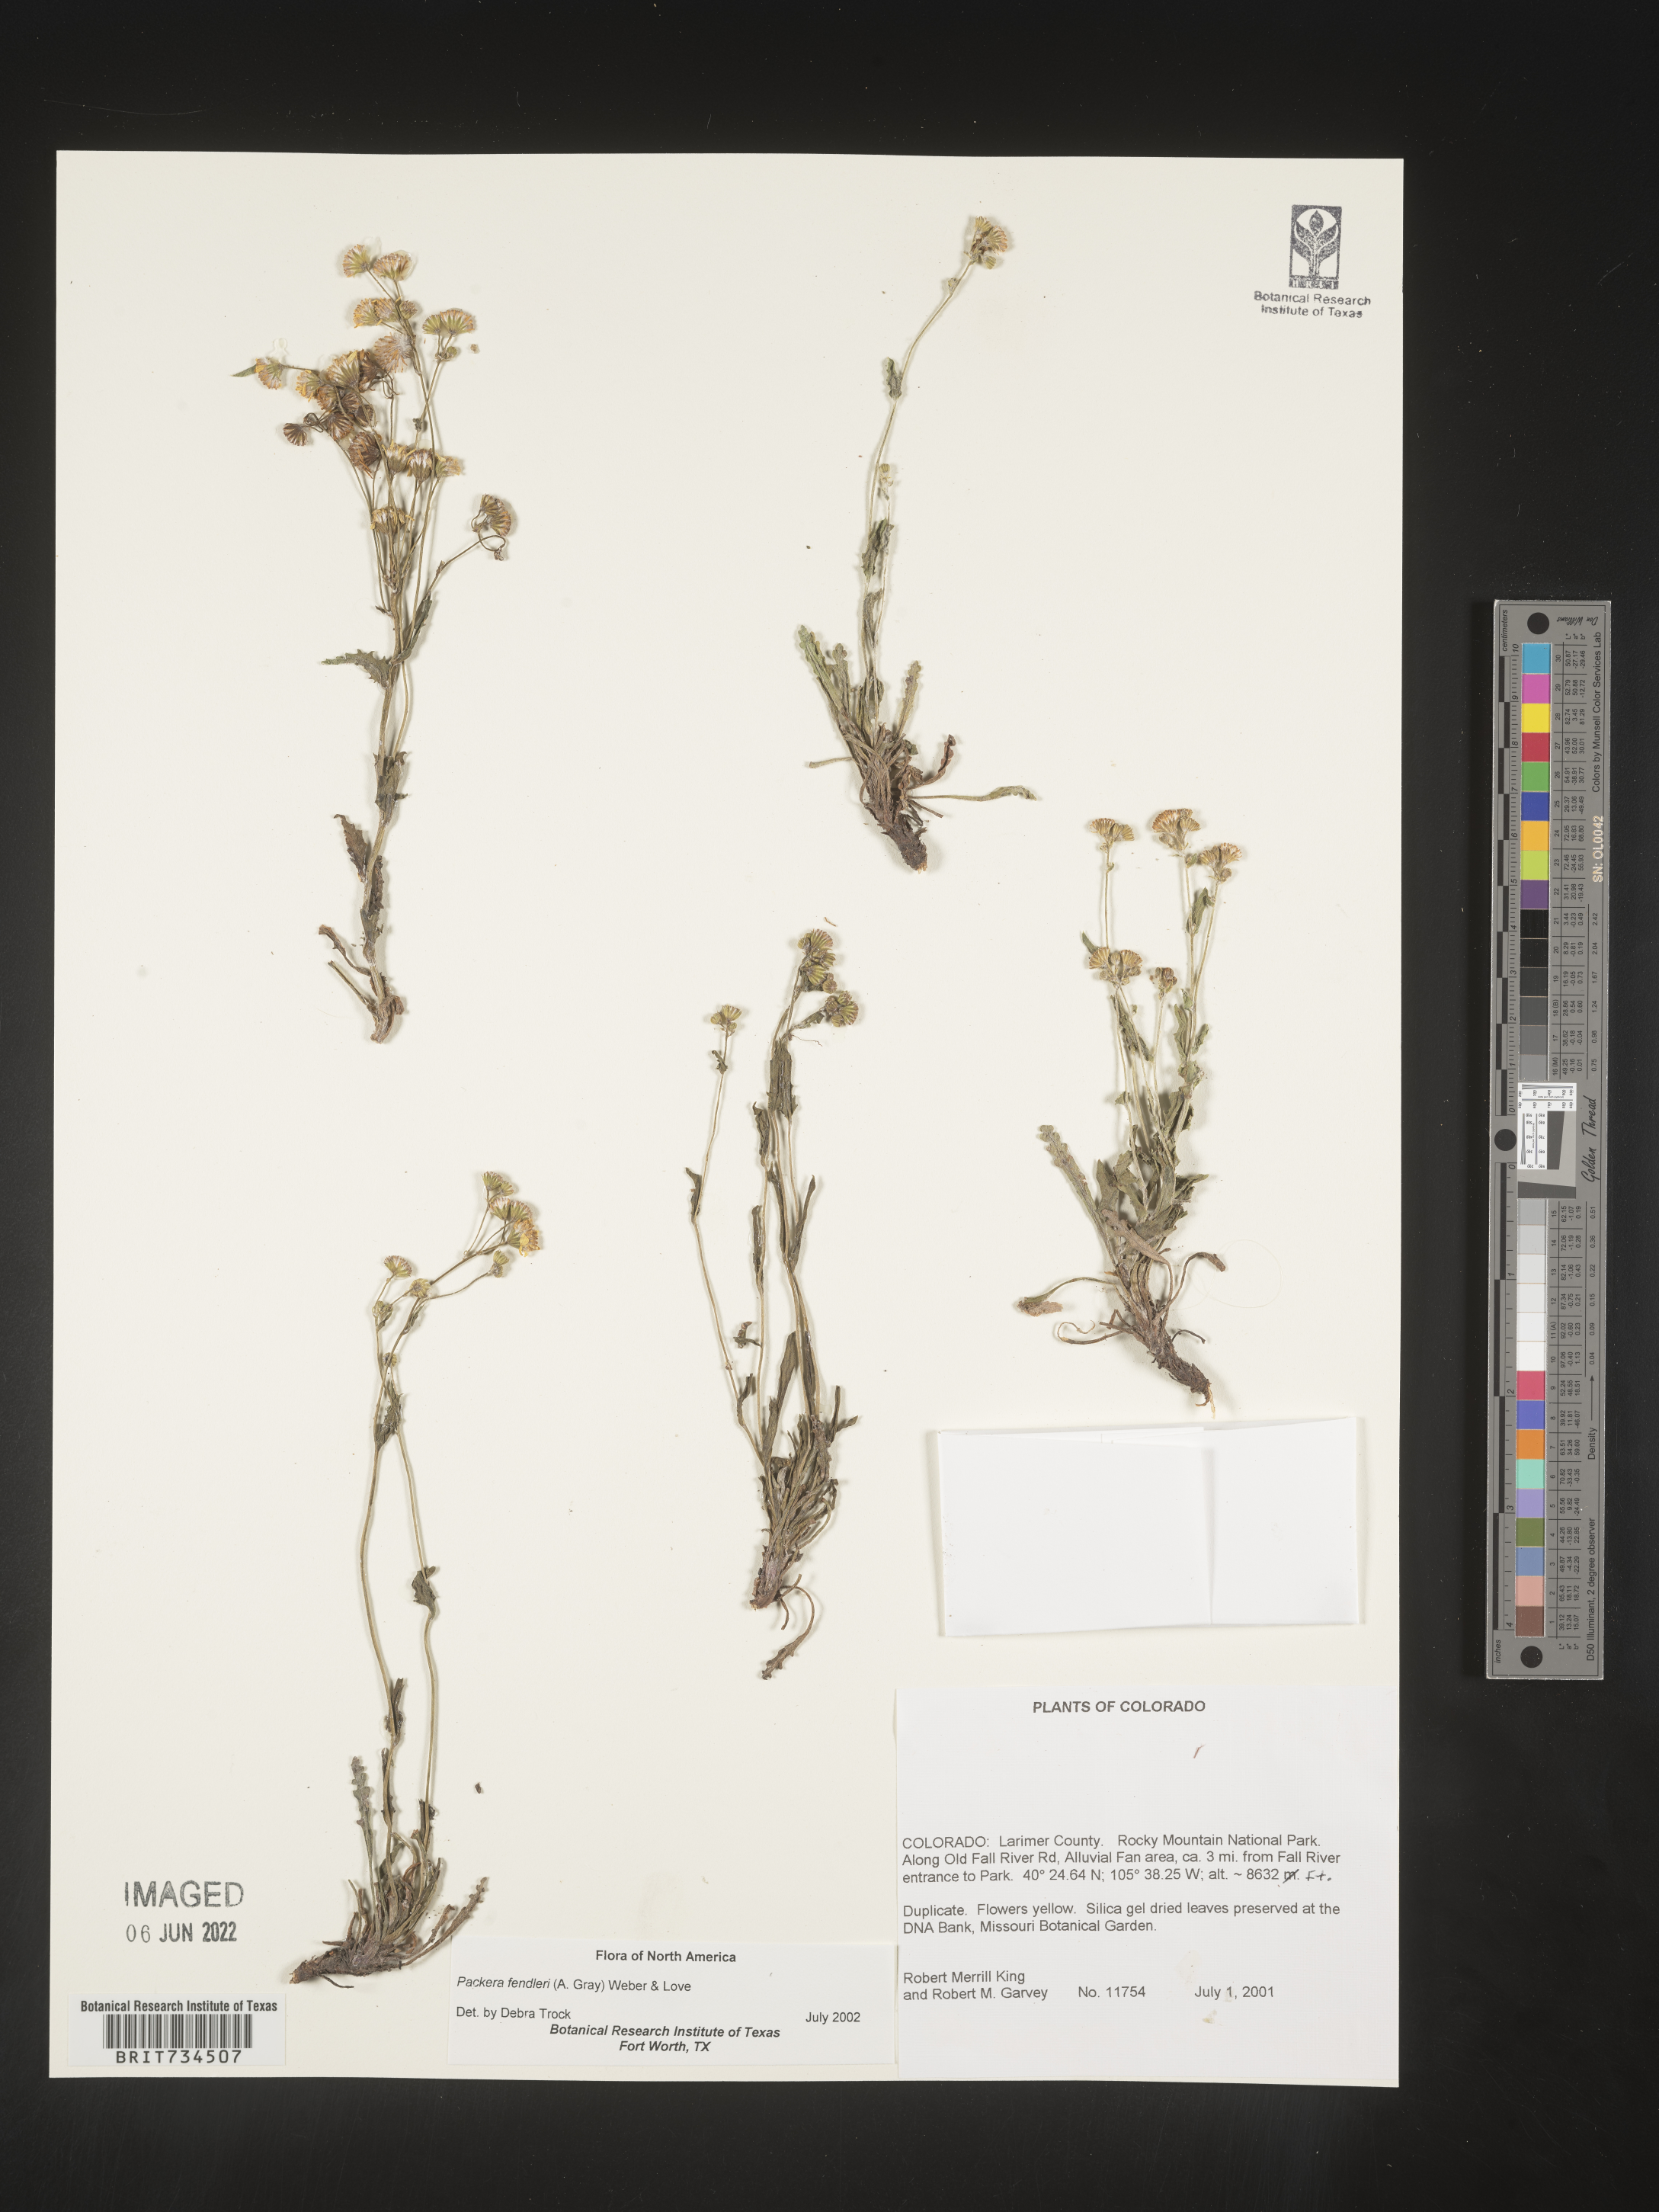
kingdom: Plantae
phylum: Tracheophyta
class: Magnoliopsida
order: Asterales
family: Asteraceae
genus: Packera
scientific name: Packera fendleri
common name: Notch-leaf butterweed
